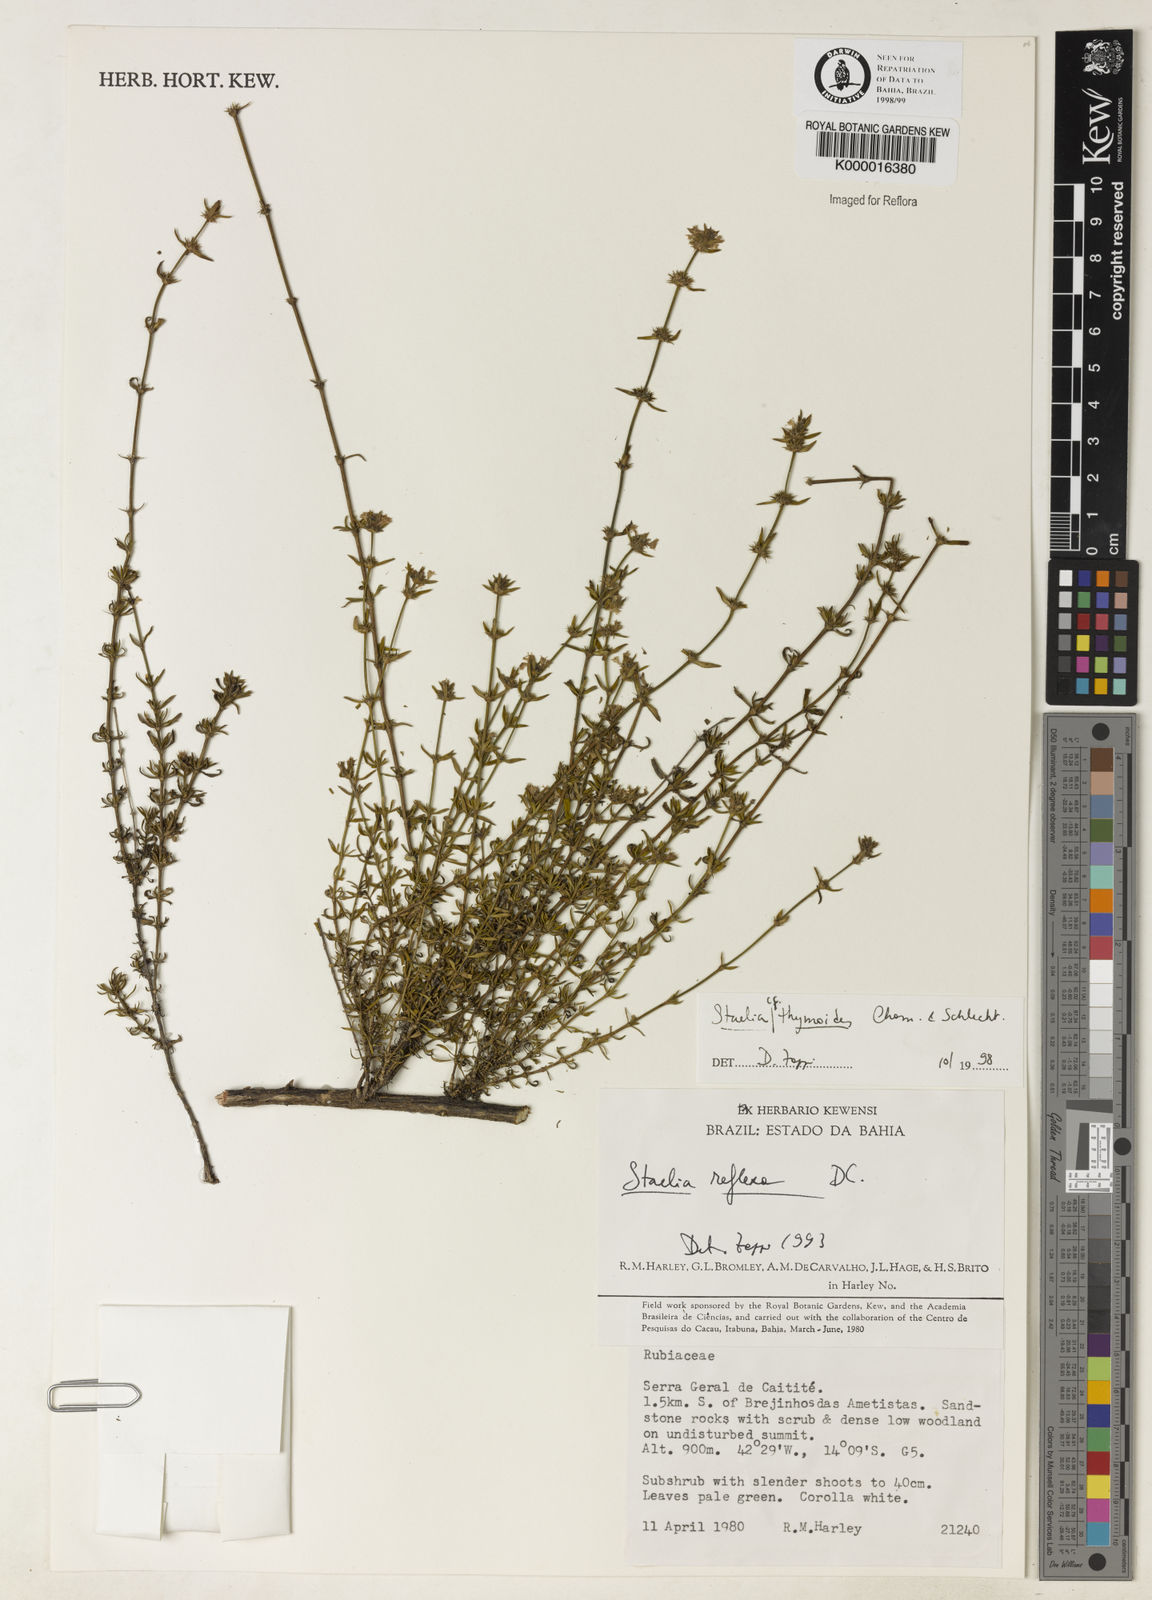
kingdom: Plantae
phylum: Tracheophyta
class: Magnoliopsida
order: Gentianales
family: Rubiaceae
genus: Staelia
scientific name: Staelia thymoides
